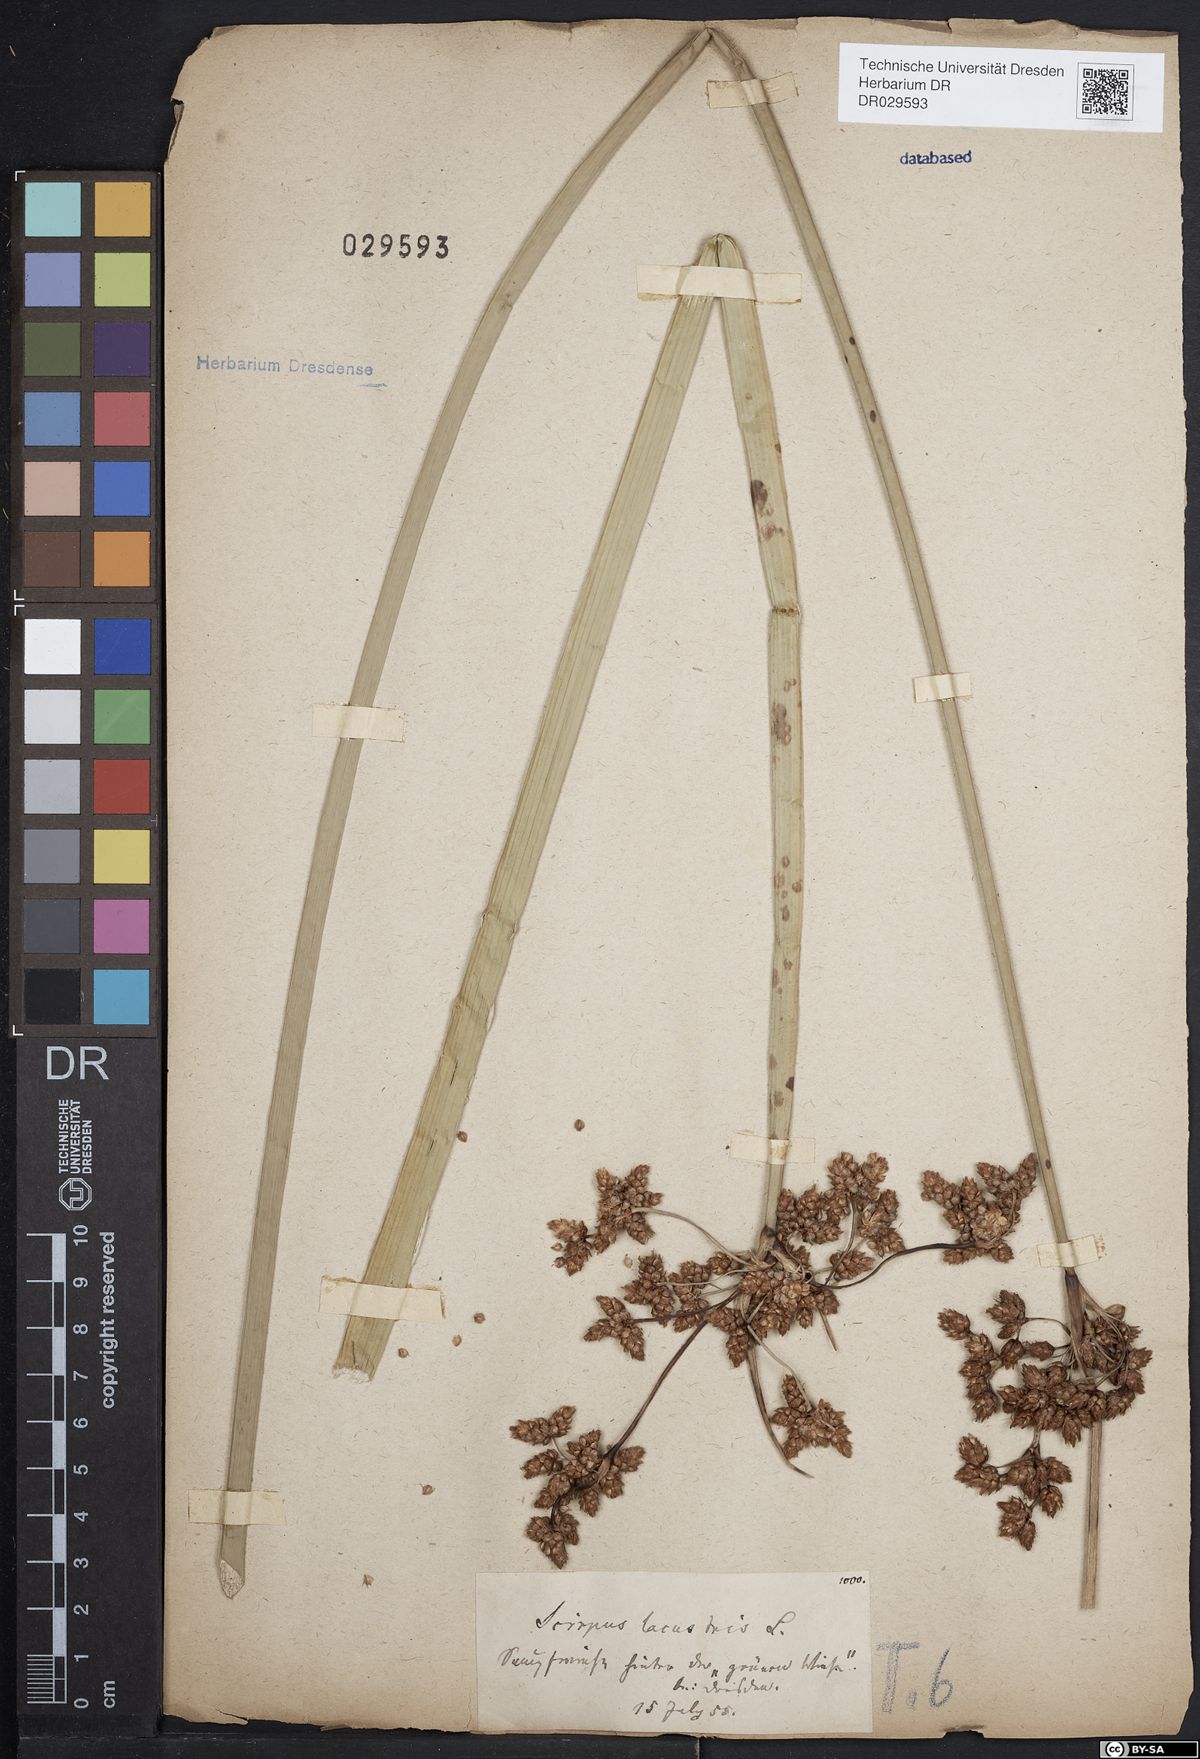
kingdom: Plantae
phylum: Tracheophyta
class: Liliopsida
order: Poales
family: Cyperaceae
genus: Schoenoplectus
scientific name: Schoenoplectus lacustris
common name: Common club-rush
